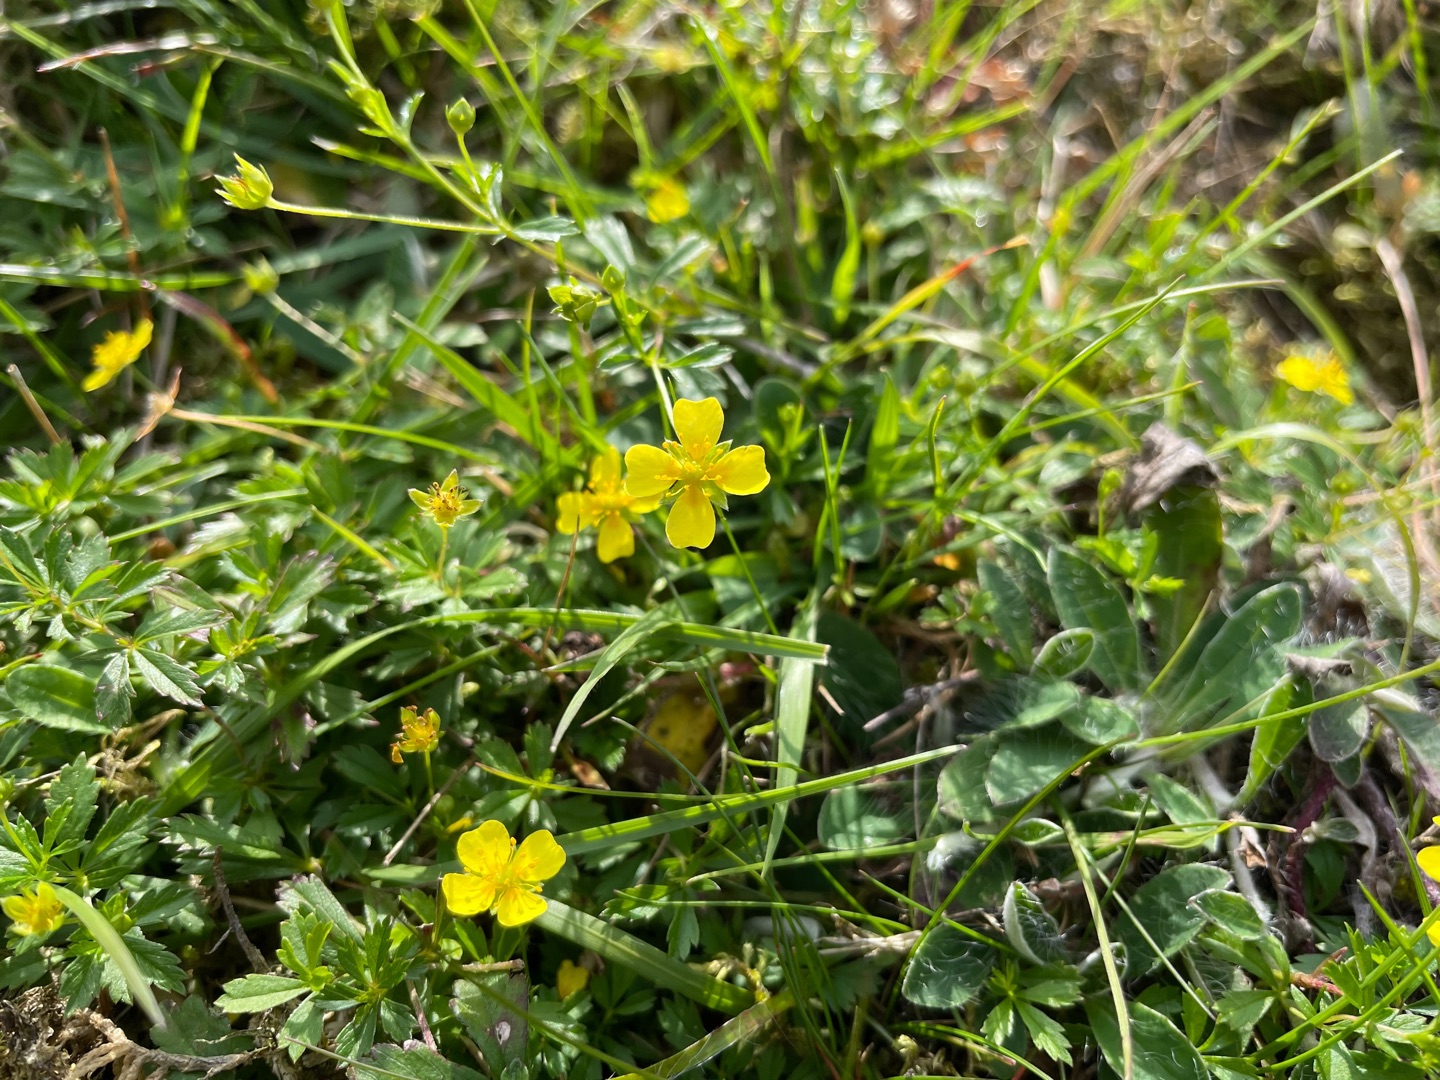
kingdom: Plantae
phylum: Tracheophyta
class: Magnoliopsida
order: Rosales
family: Rosaceae
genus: Potentilla
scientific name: Potentilla erecta
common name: Tormentil
